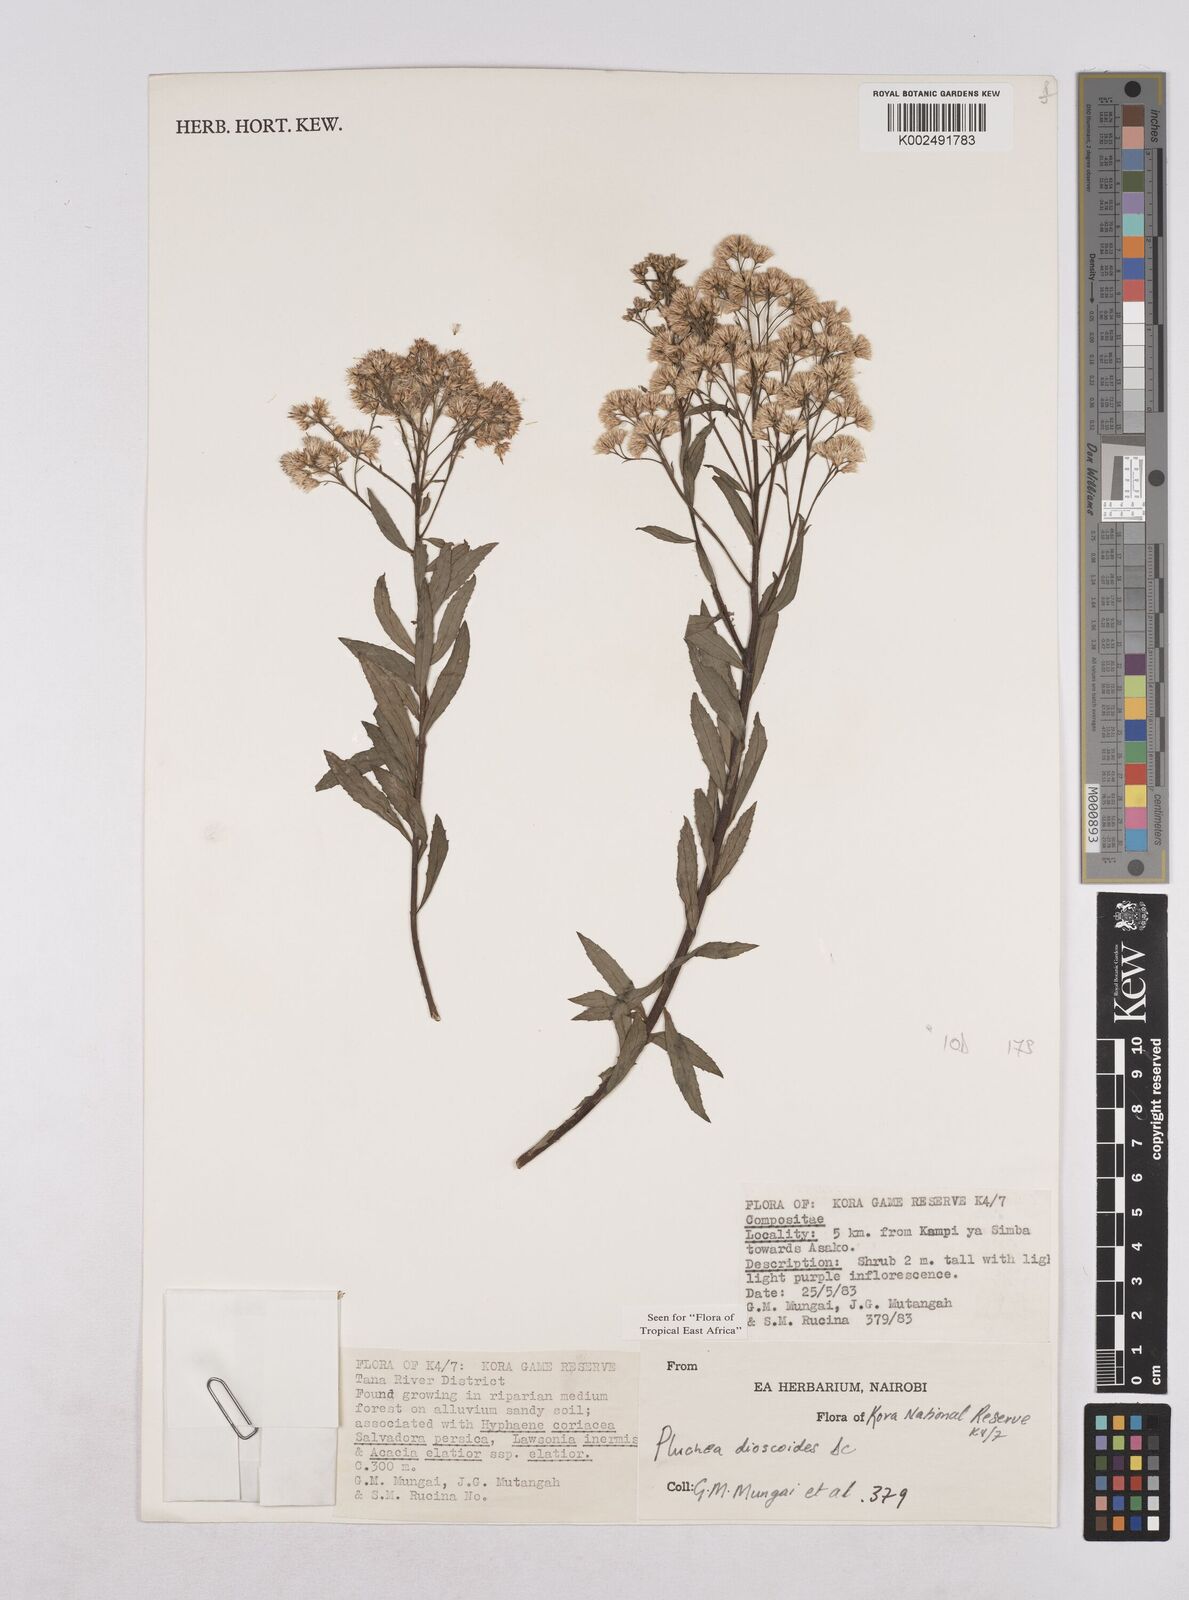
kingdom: Plantae
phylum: Tracheophyta
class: Magnoliopsida
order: Asterales
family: Asteraceae
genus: Pluchea
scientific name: Pluchea dioscoridis
